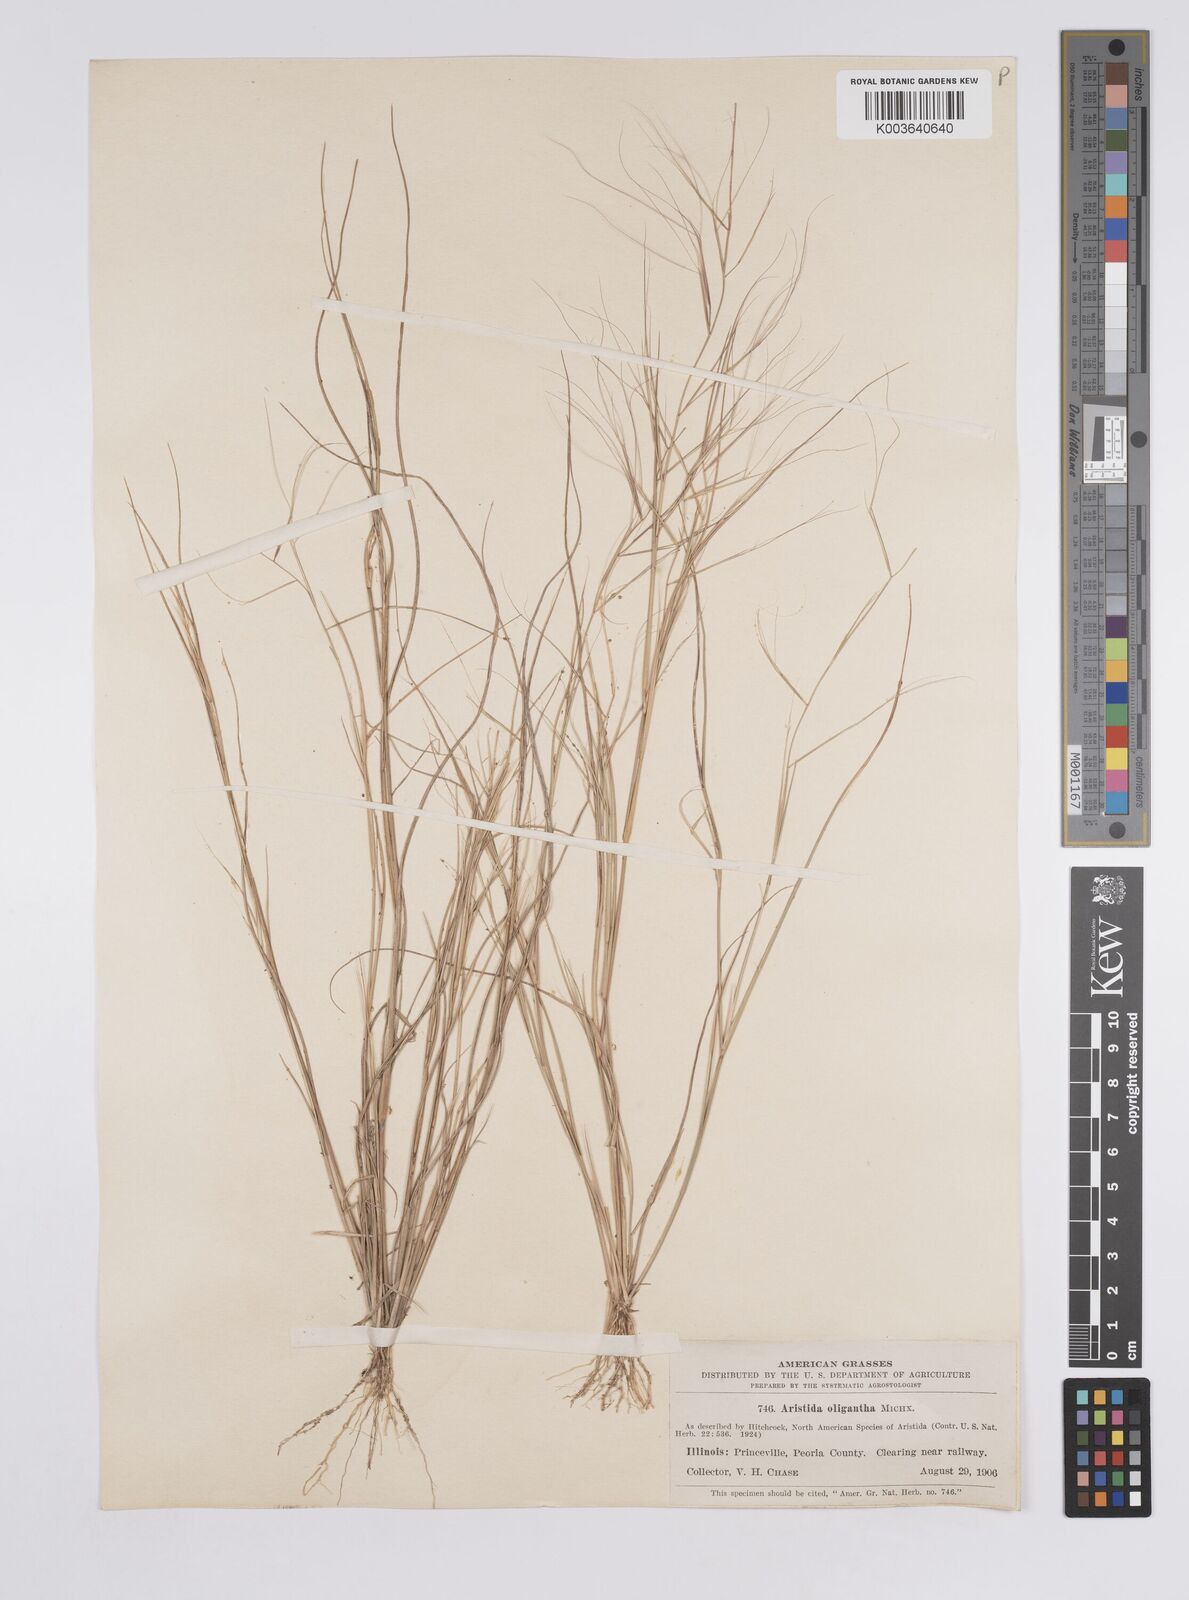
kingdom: Plantae
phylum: Tracheophyta
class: Liliopsida
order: Poales
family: Poaceae
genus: Aristida
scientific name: Aristida oligantha
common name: Few-flowered aristida
